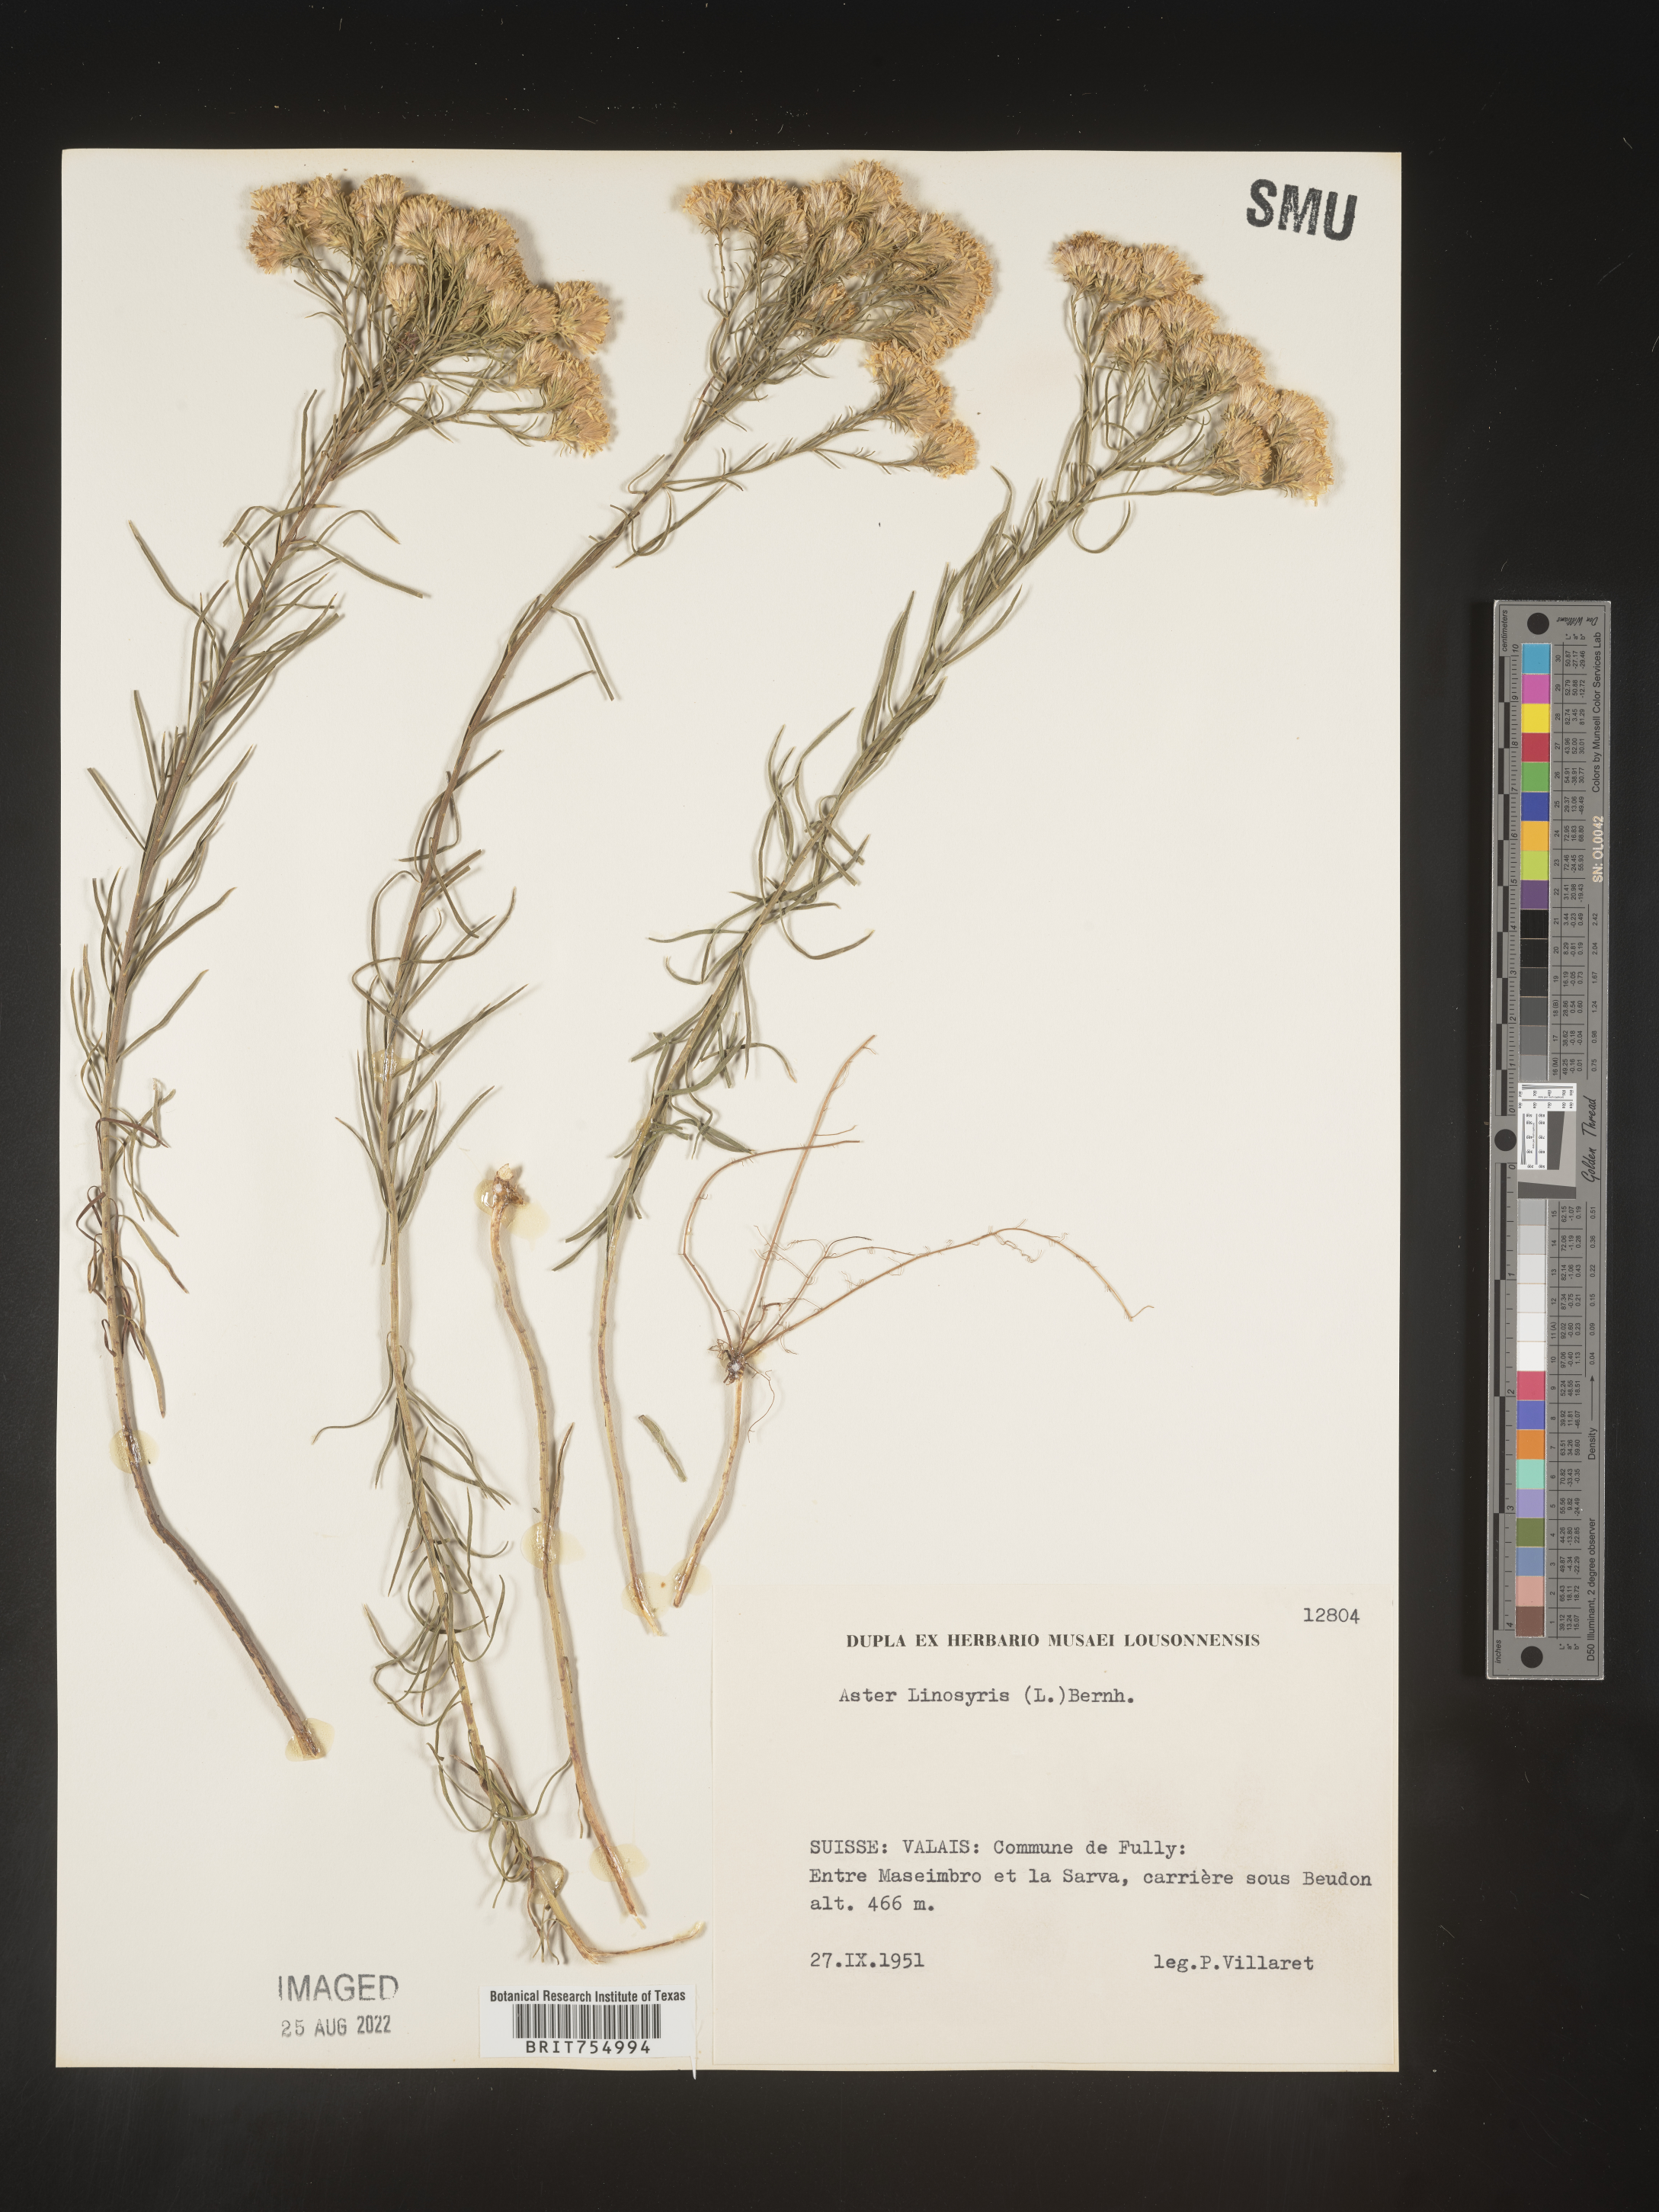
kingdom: Plantae
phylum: Tracheophyta
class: Magnoliopsida
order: Asterales
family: Asteraceae
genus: Symphyotrichum
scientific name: Symphyotrichum
